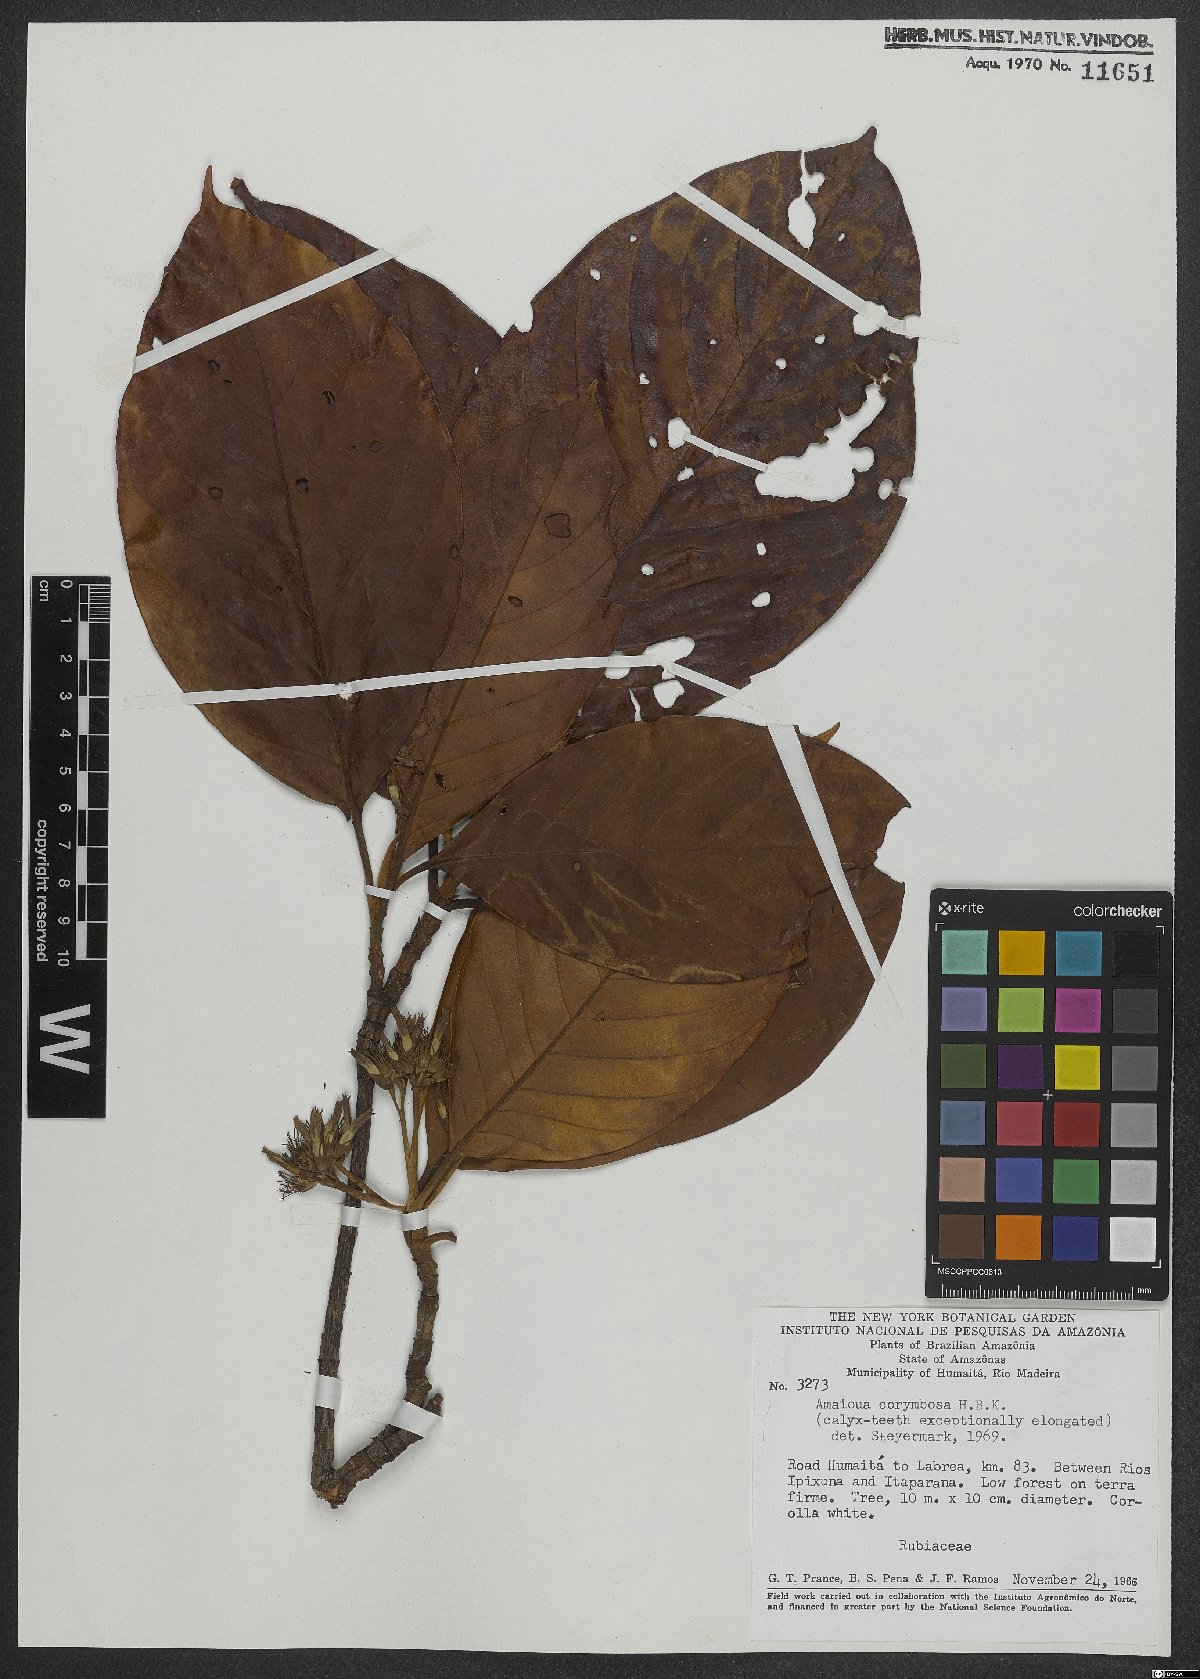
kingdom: Plantae
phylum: Tracheophyta
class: Magnoliopsida
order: Gentianales
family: Rubiaceae
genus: Amaioua
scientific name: Amaioua glomerulata
